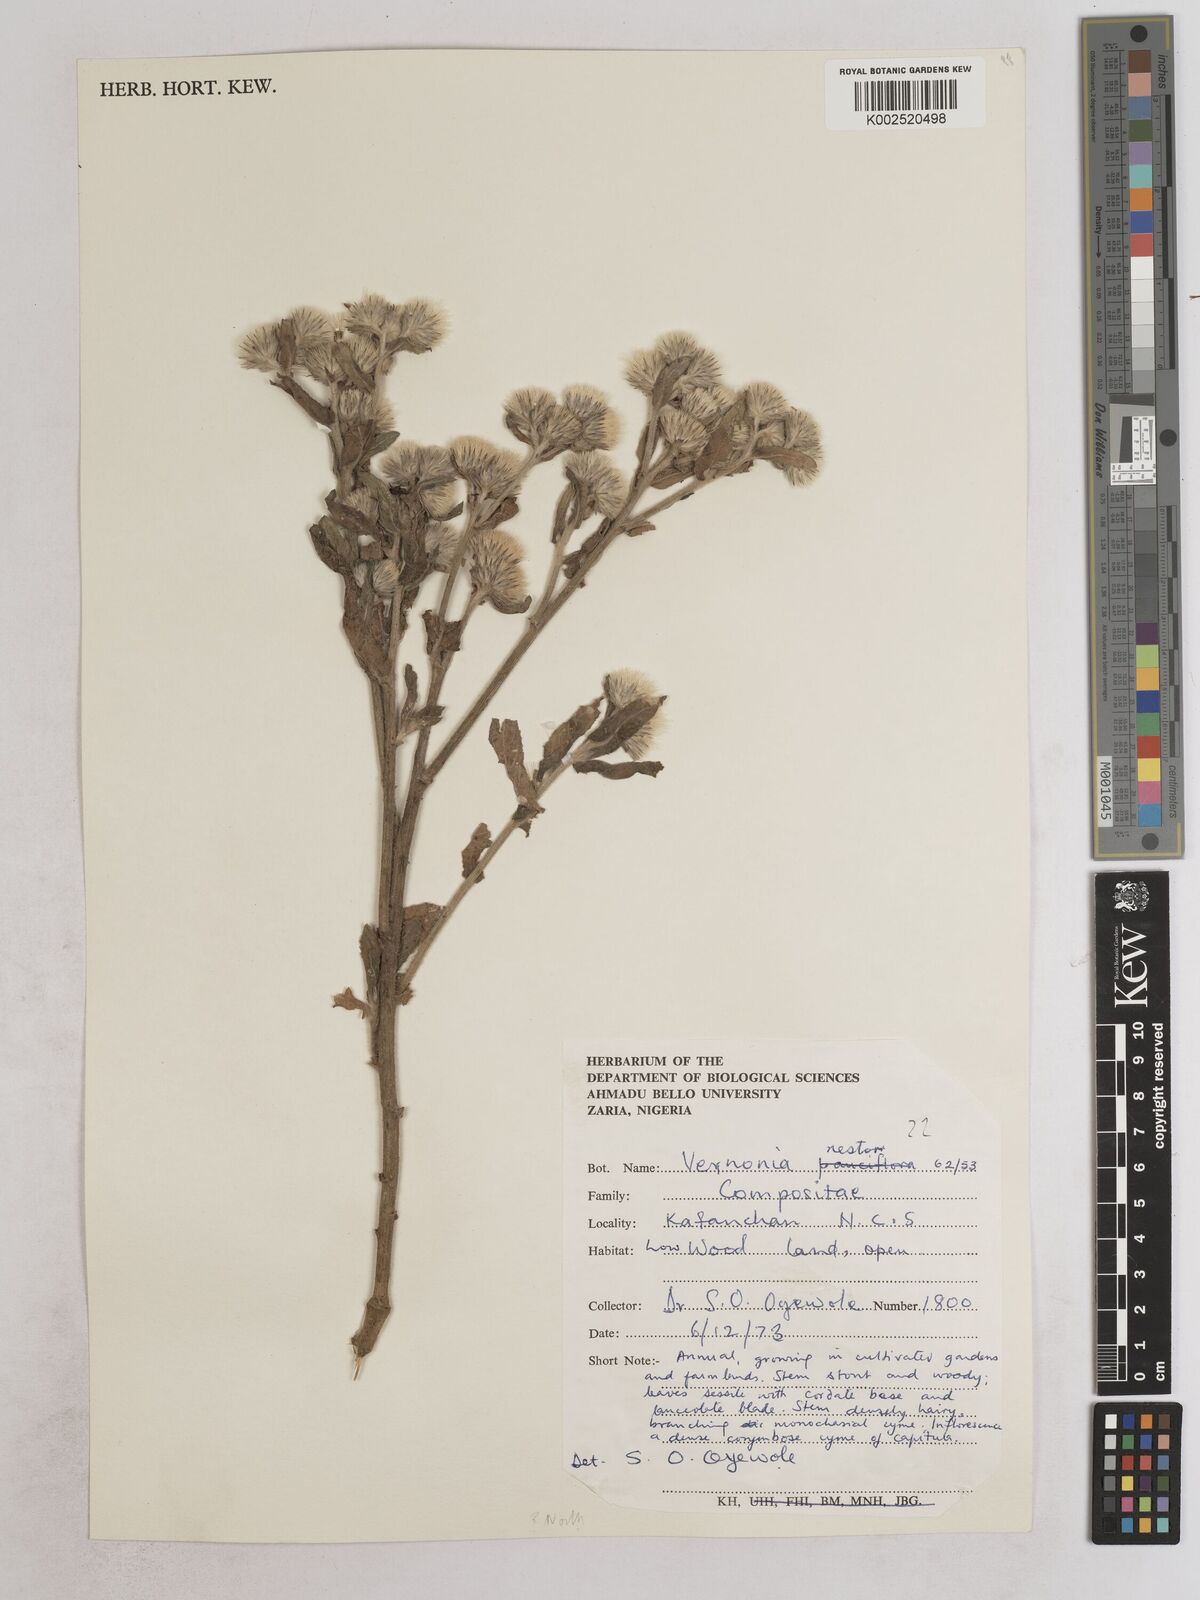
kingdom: Plantae
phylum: Tracheophyta
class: Magnoliopsida
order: Asterales
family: Asteraceae
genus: Vernoniastrum
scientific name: Vernoniastrum ambiguum
